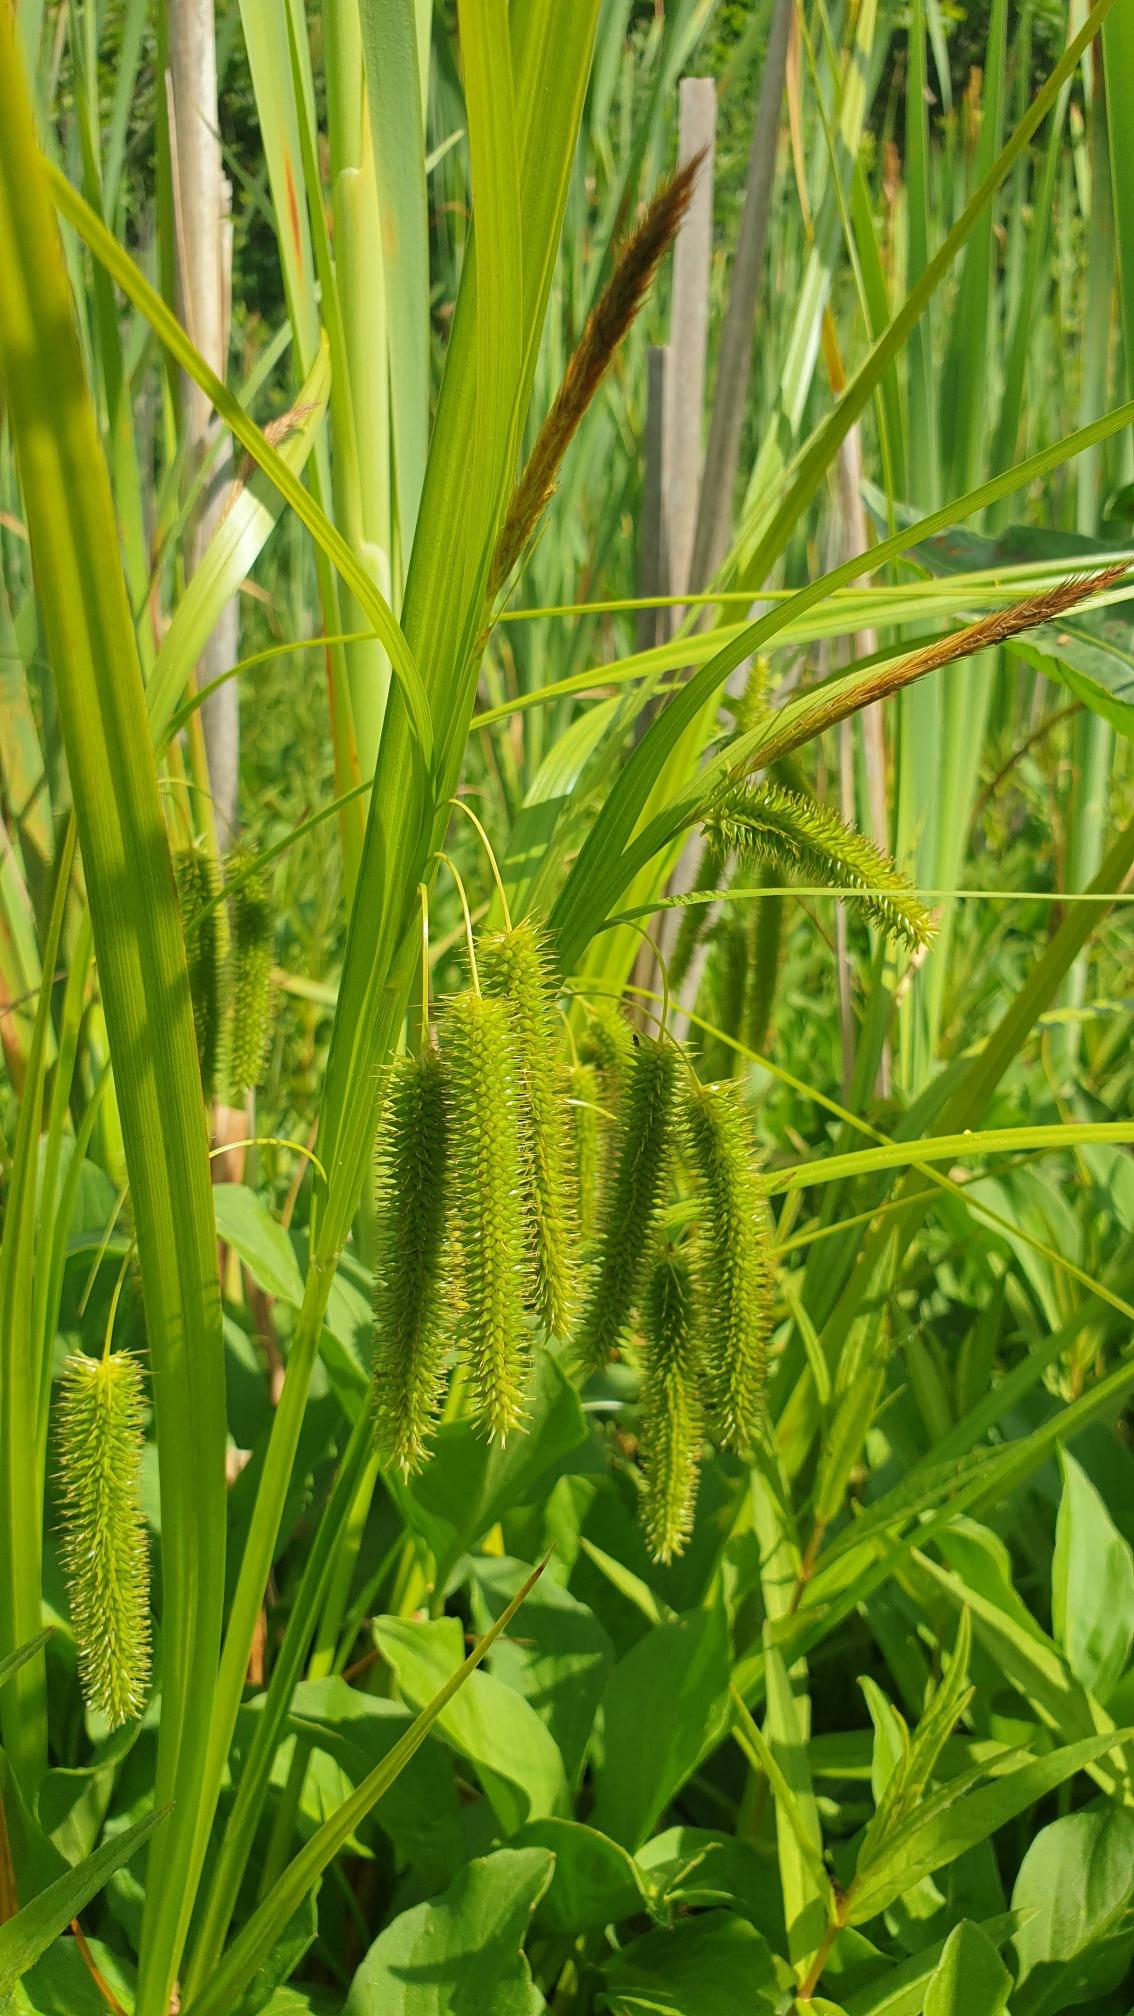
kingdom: Plantae
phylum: Tracheophyta
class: Liliopsida
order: Poales
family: Cyperaceae
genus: Carex
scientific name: Carex pseudocyperus
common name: Knippe-star
